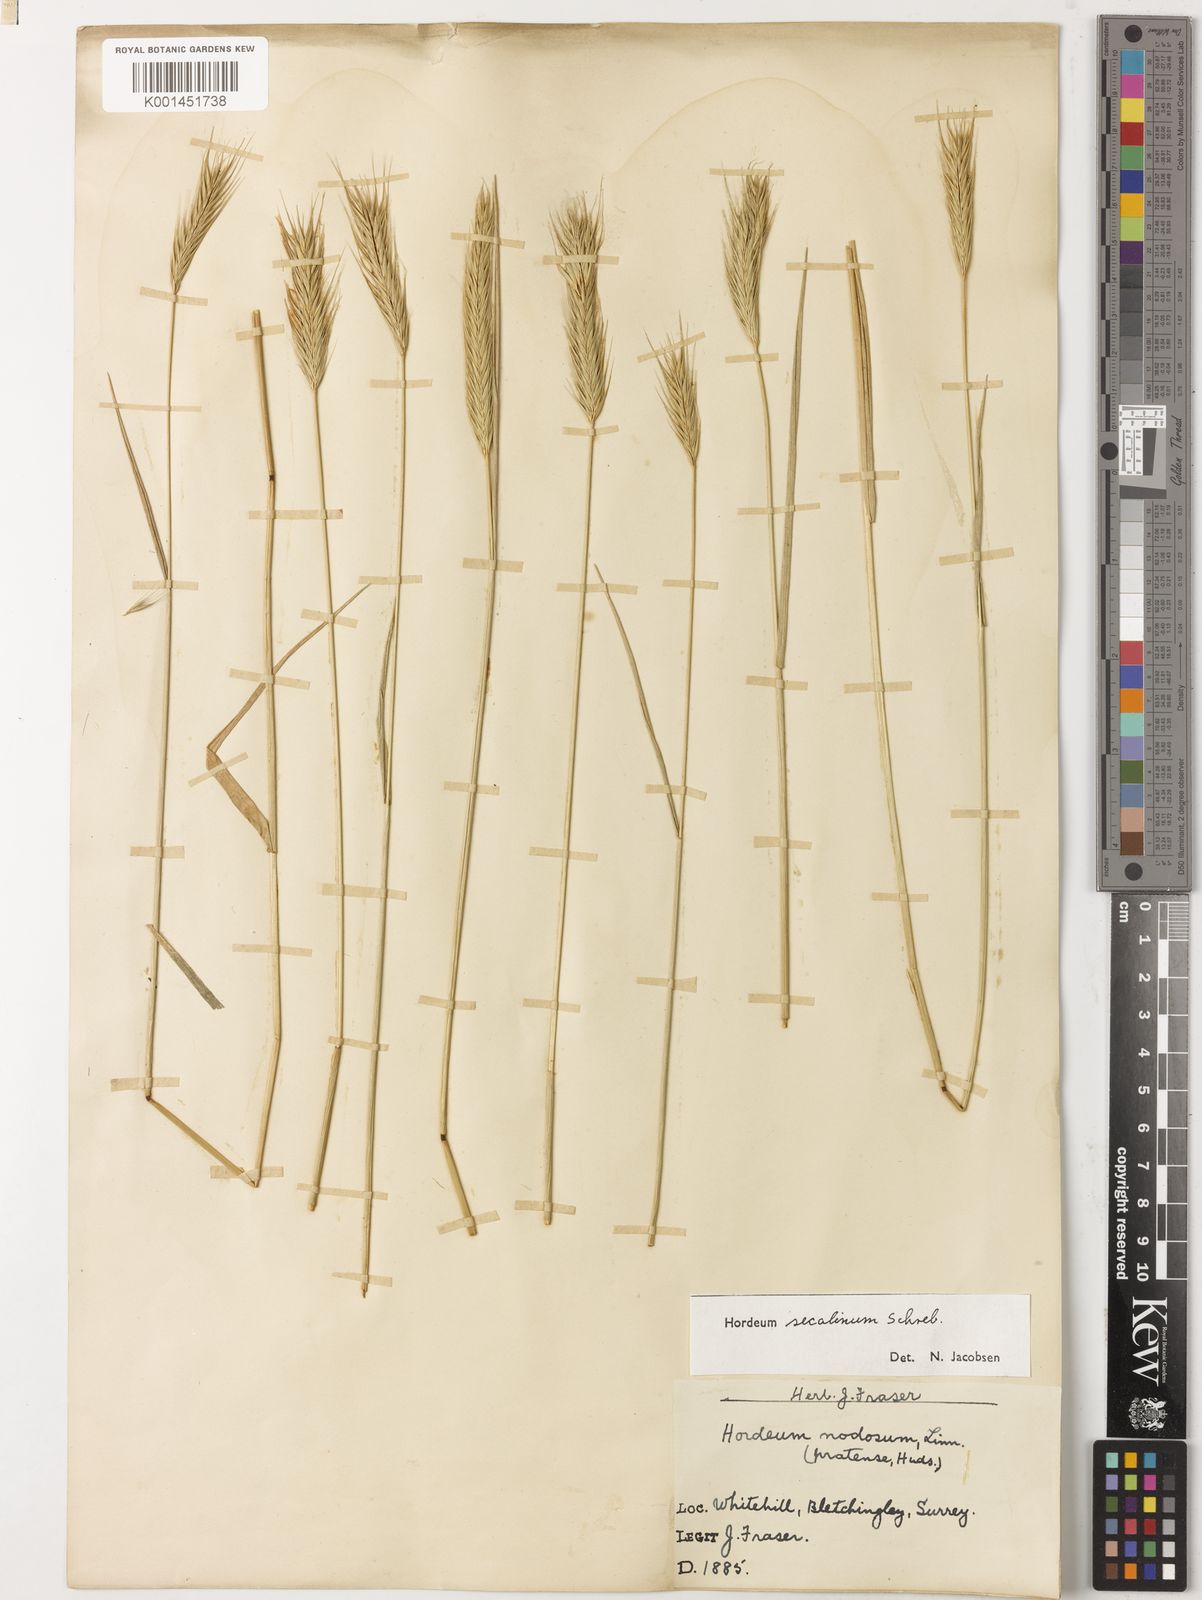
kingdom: Plantae
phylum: Tracheophyta
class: Liliopsida
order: Poales
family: Poaceae
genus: Hordeum
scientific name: Hordeum secalinum
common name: Meadow barley
